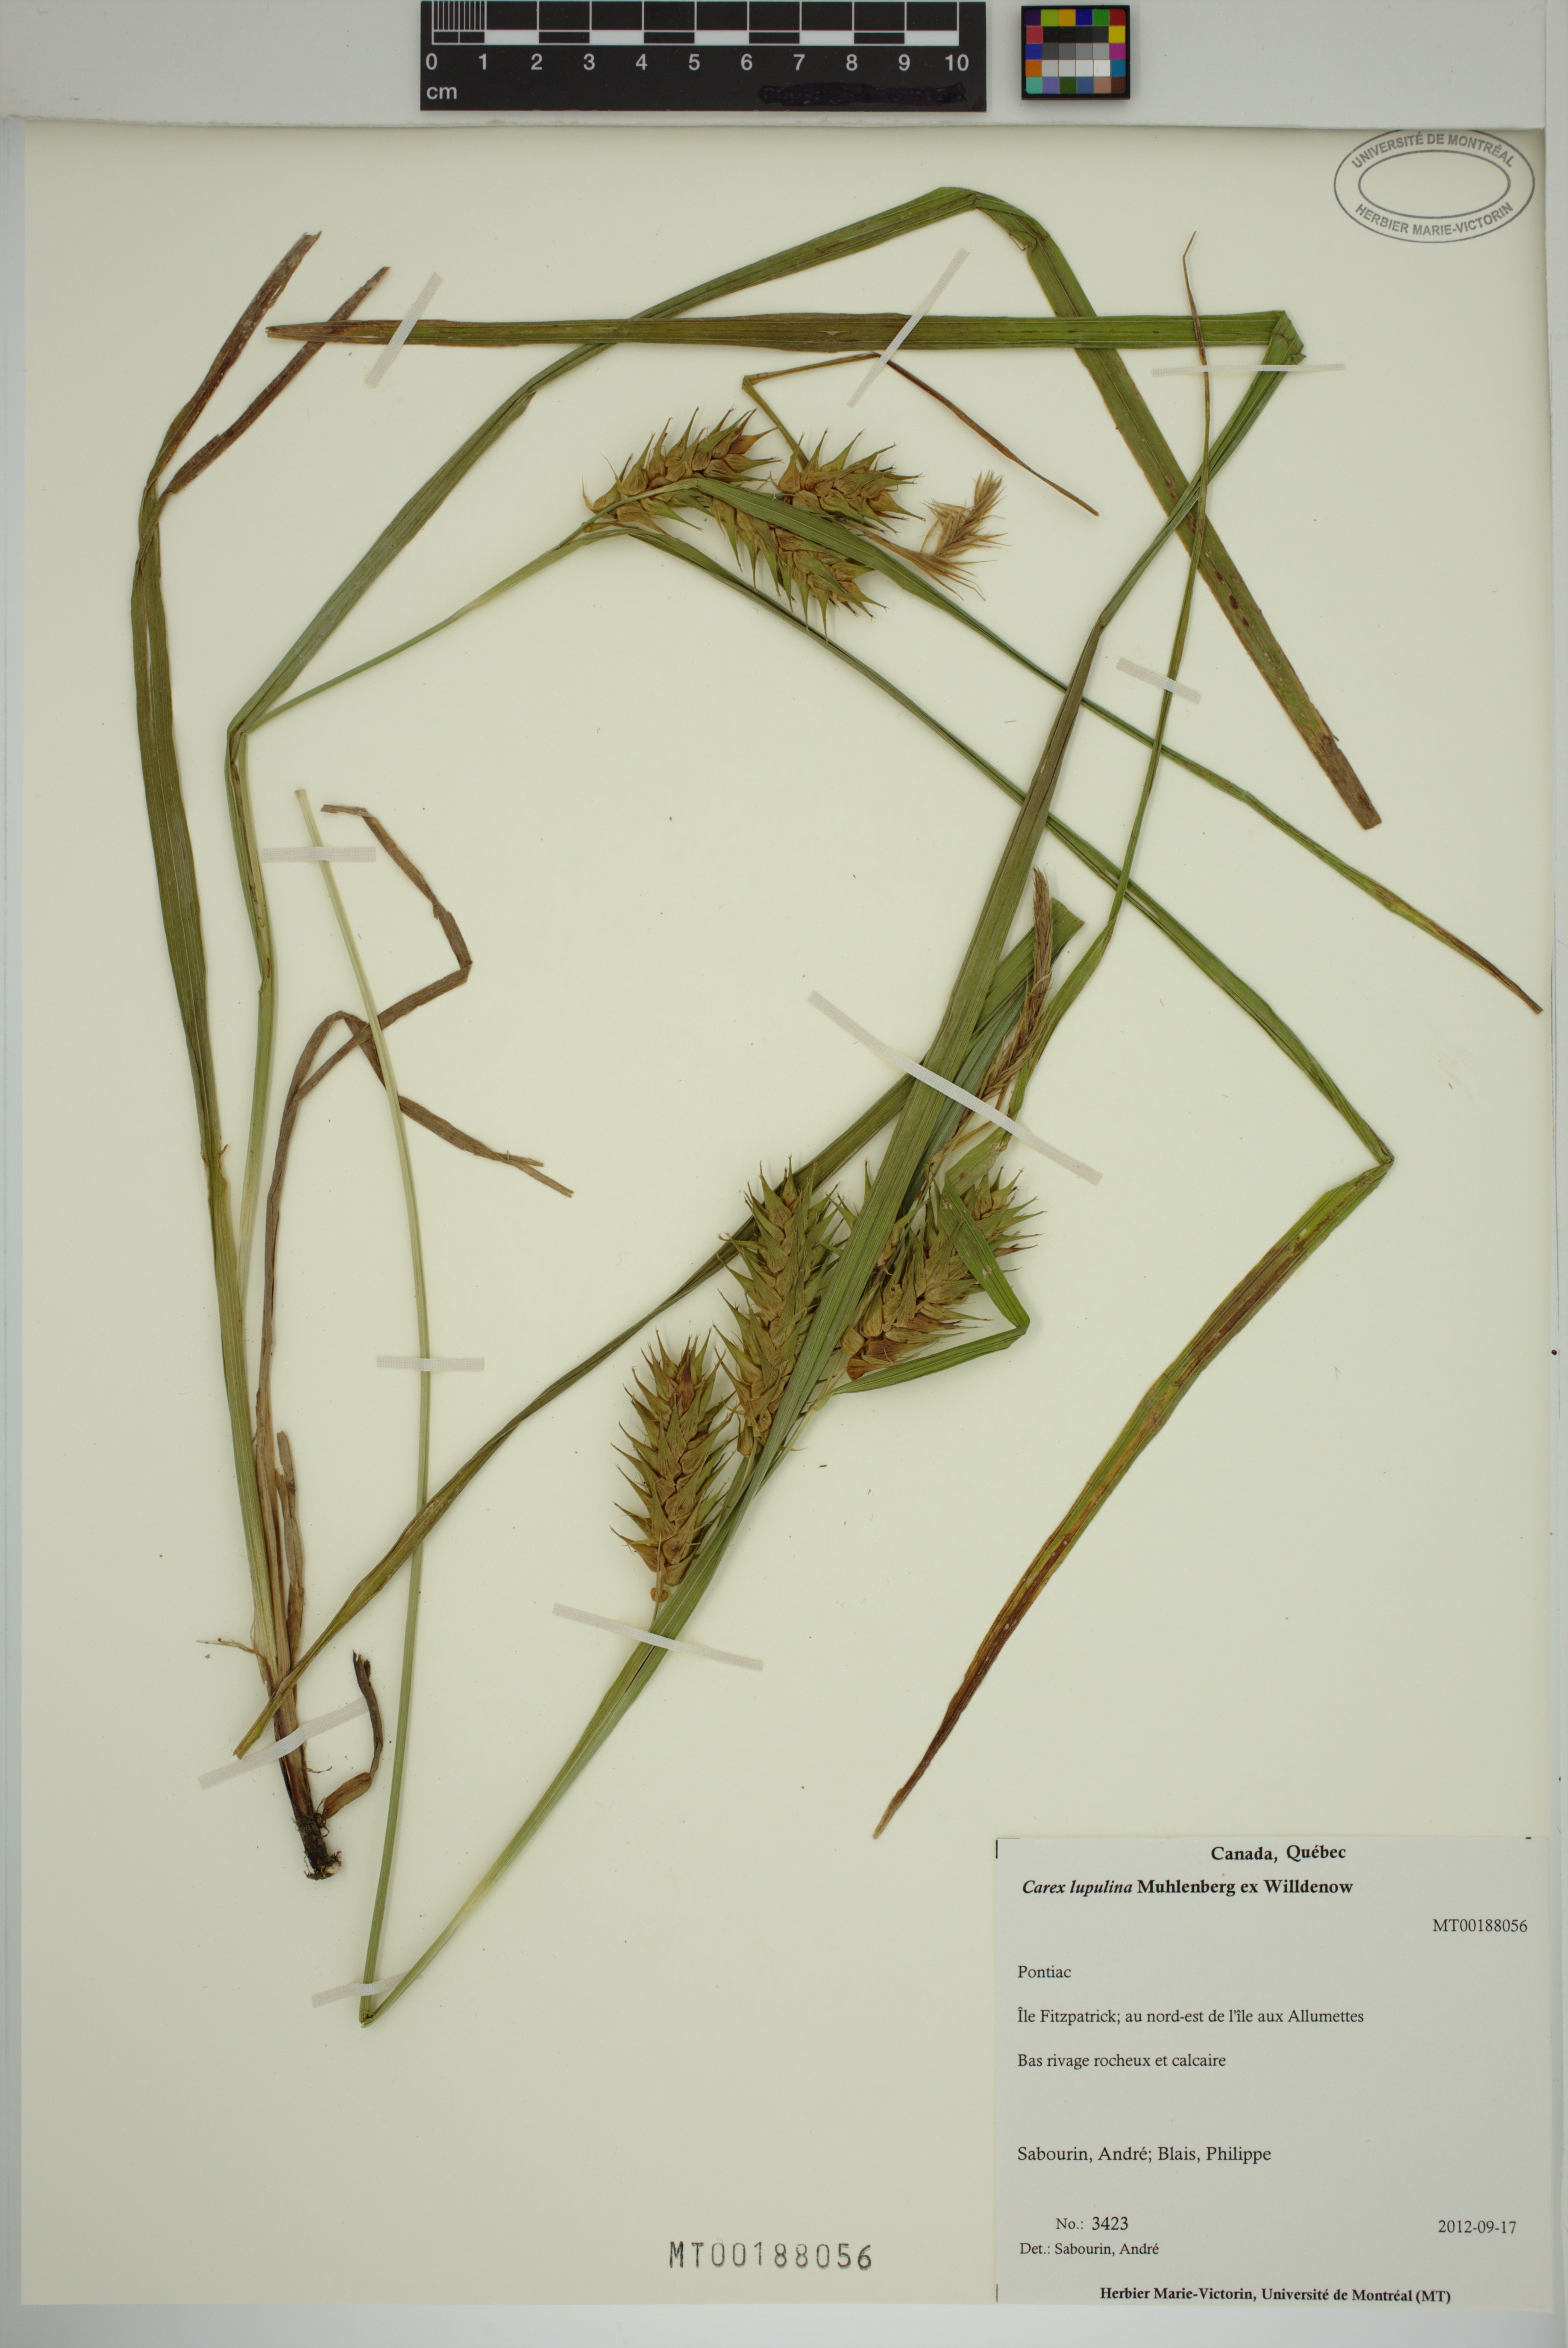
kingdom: Plantae
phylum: Tracheophyta
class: Liliopsida
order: Poales
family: Cyperaceae
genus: Carex
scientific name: Carex lupulina
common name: Hop sedge
